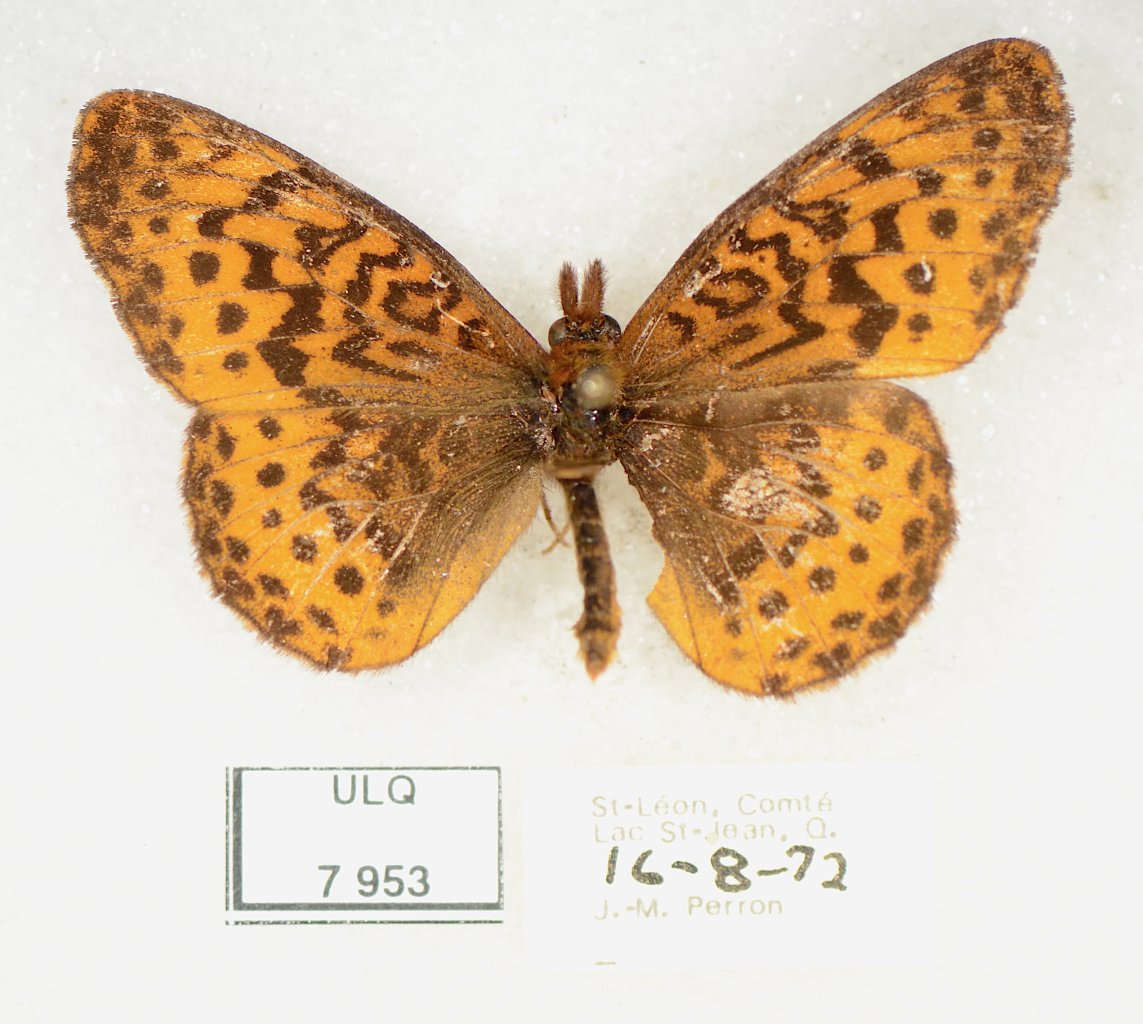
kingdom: Animalia
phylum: Arthropoda
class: Insecta
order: Lepidoptera
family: Nymphalidae
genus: Boloria
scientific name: Boloria selene
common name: Silver-bordered Fritillary
